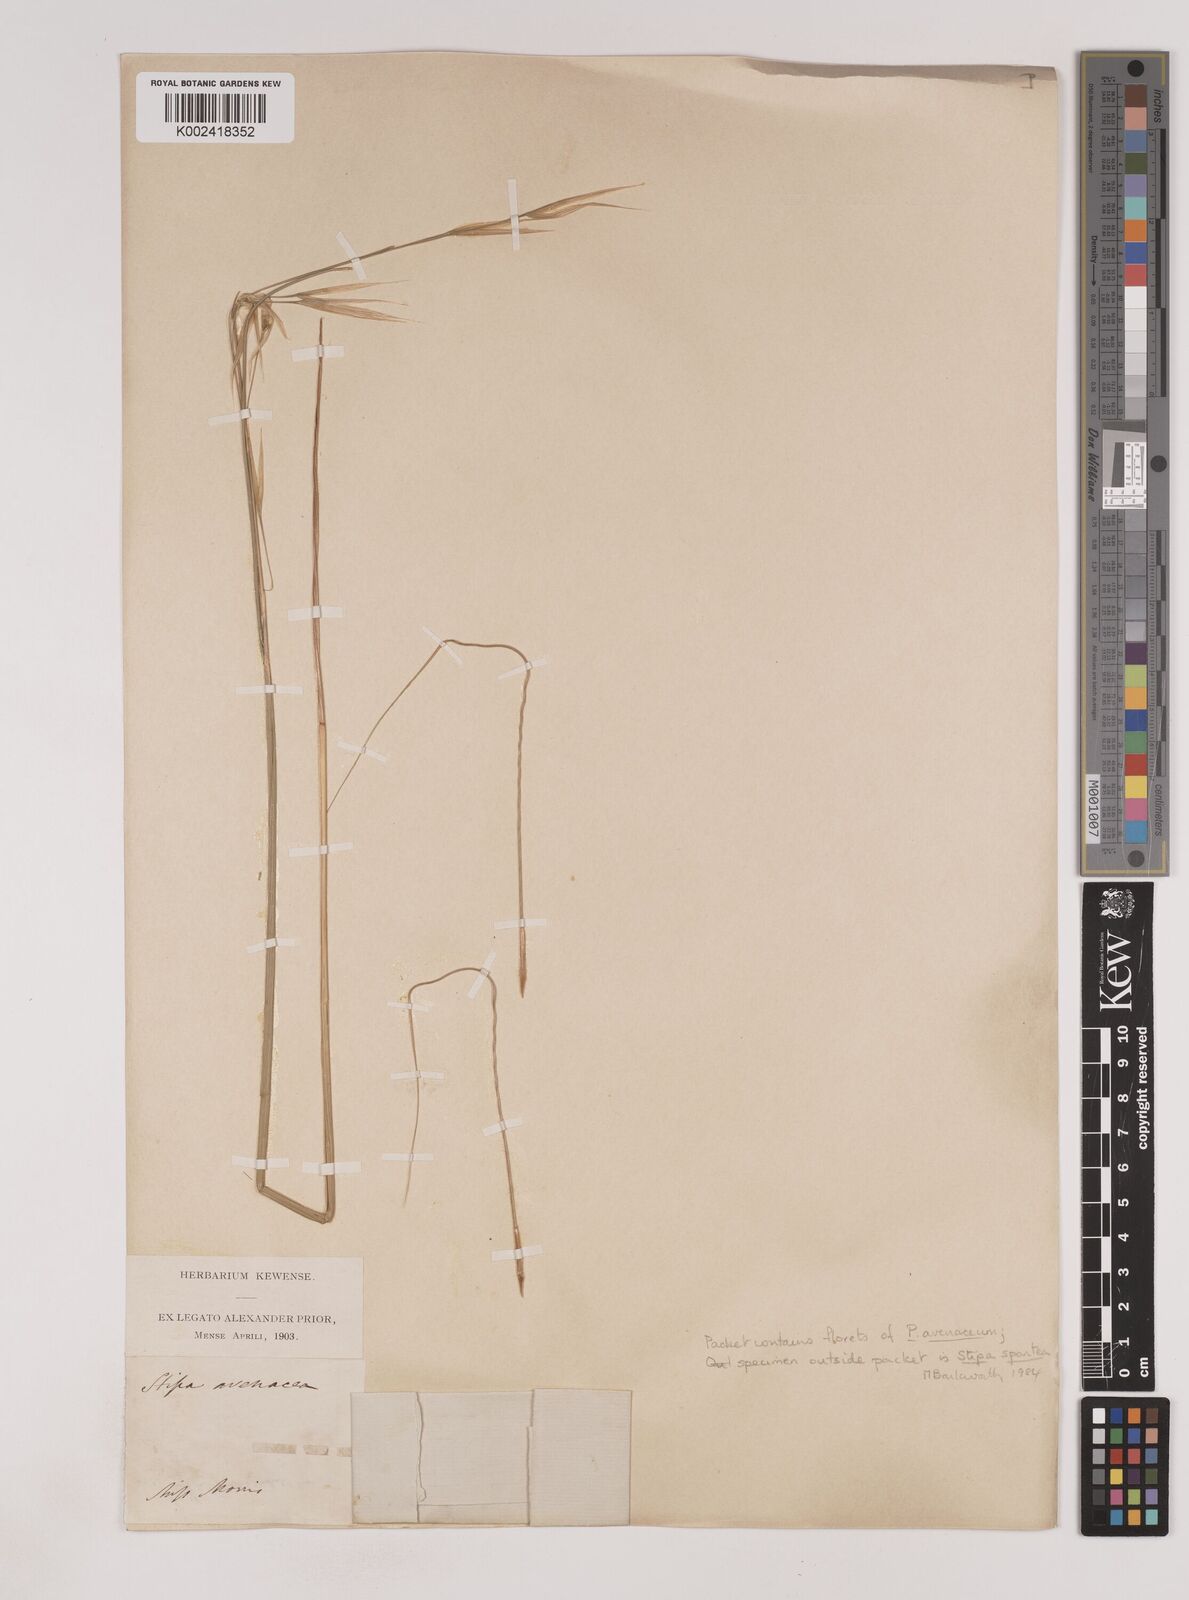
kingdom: Plantae
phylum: Tracheophyta
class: Liliopsida
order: Poales
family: Poaceae
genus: Piptochaetium
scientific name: Piptochaetium avenaceum
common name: Black bunchgrass
